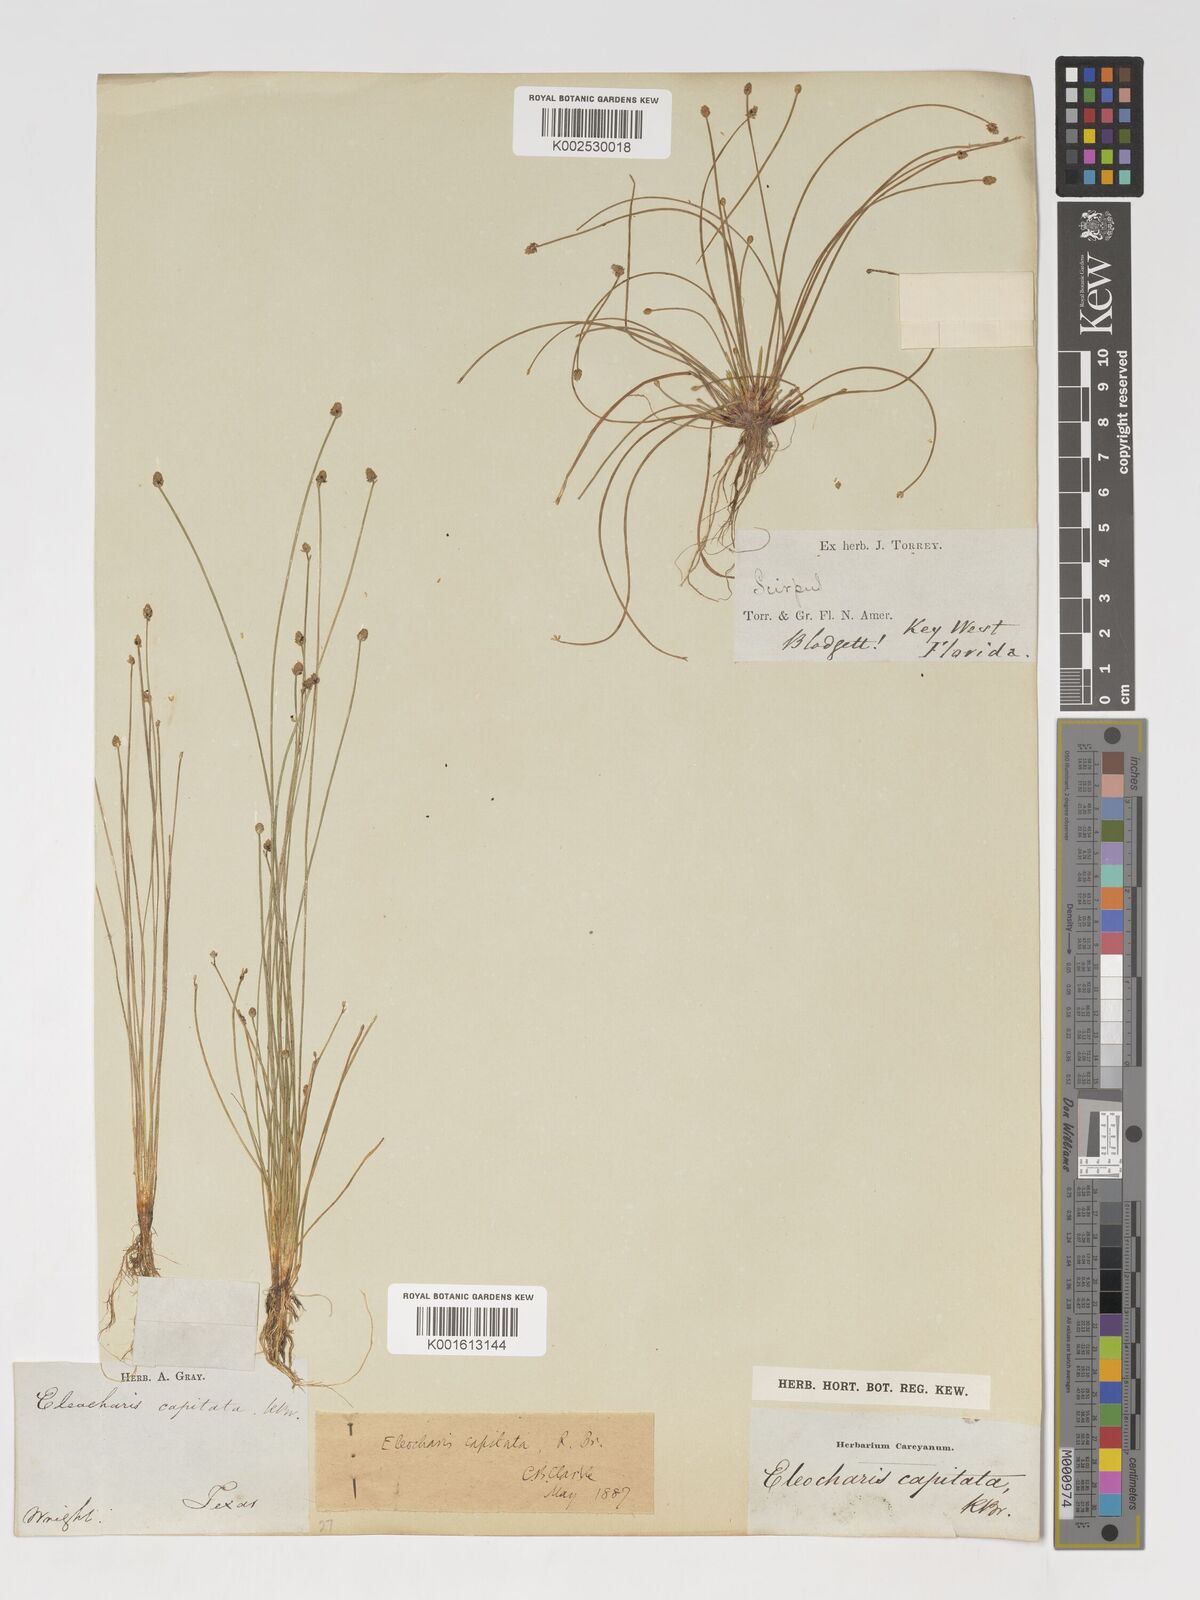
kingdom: Plantae
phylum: Tracheophyta
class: Liliopsida
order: Poales
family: Cyperaceae
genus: Eleocharis
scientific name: Eleocharis geniculata
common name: Canada spikesedge
